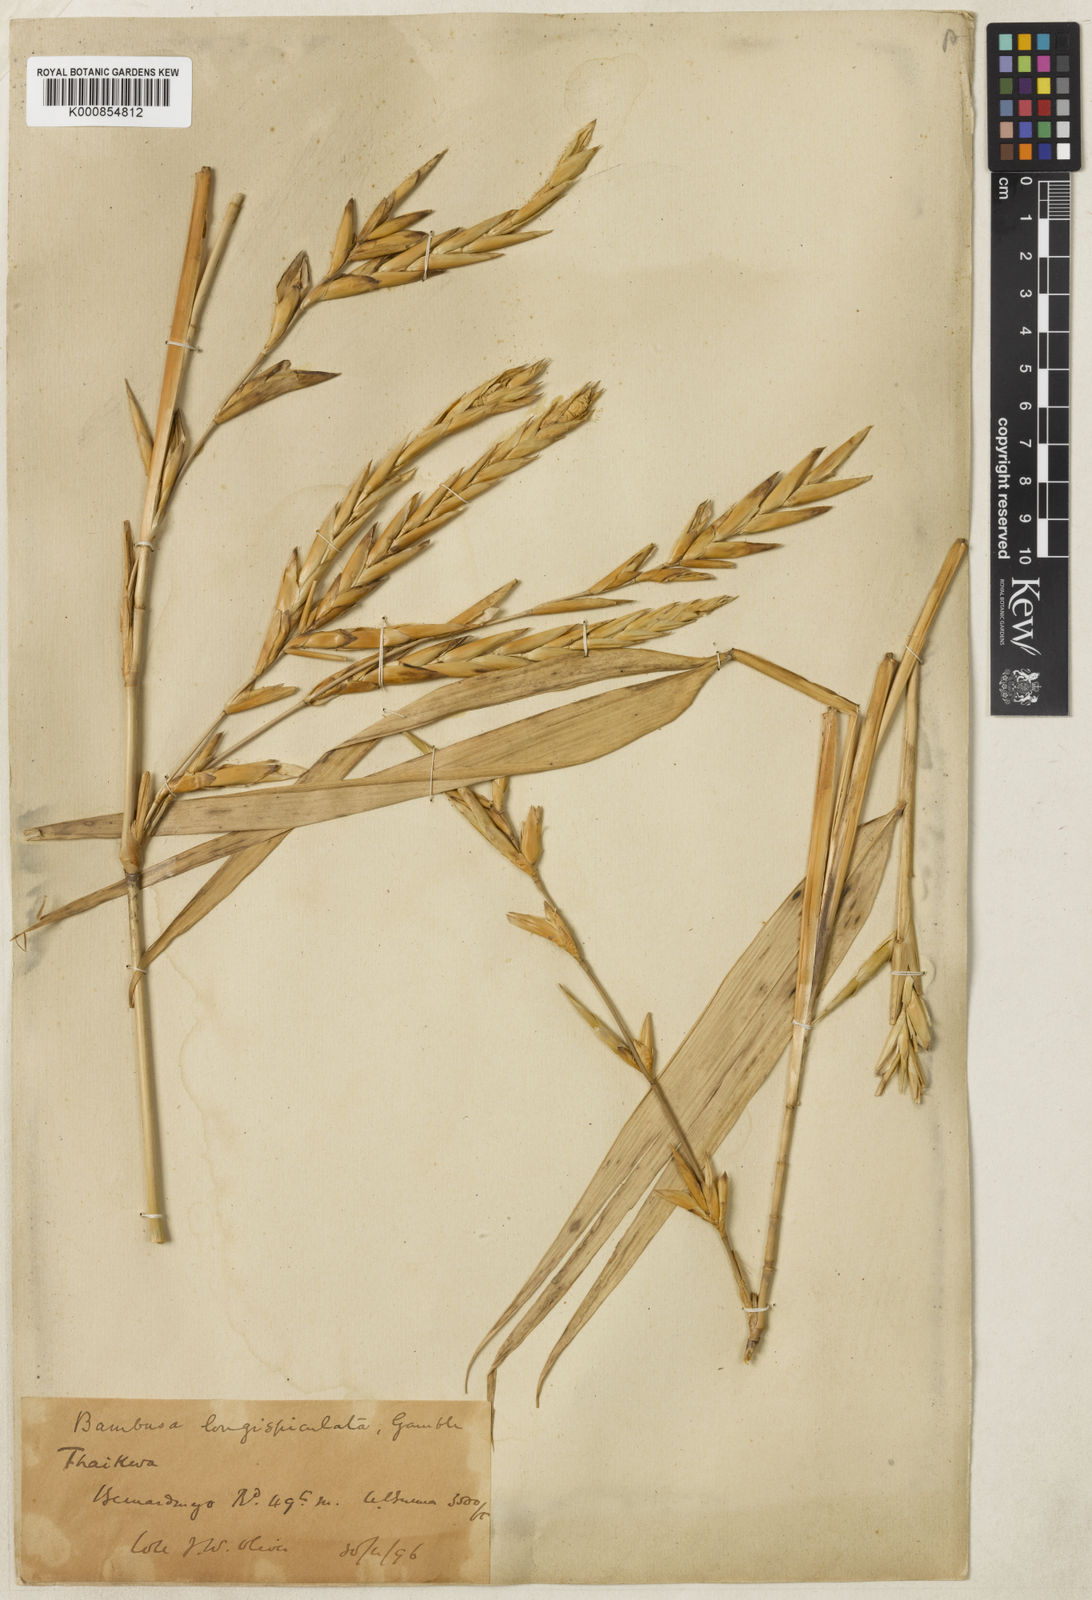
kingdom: Plantae
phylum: Tracheophyta
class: Liliopsida
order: Poales
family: Poaceae
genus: Bambusa
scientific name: Bambusa
